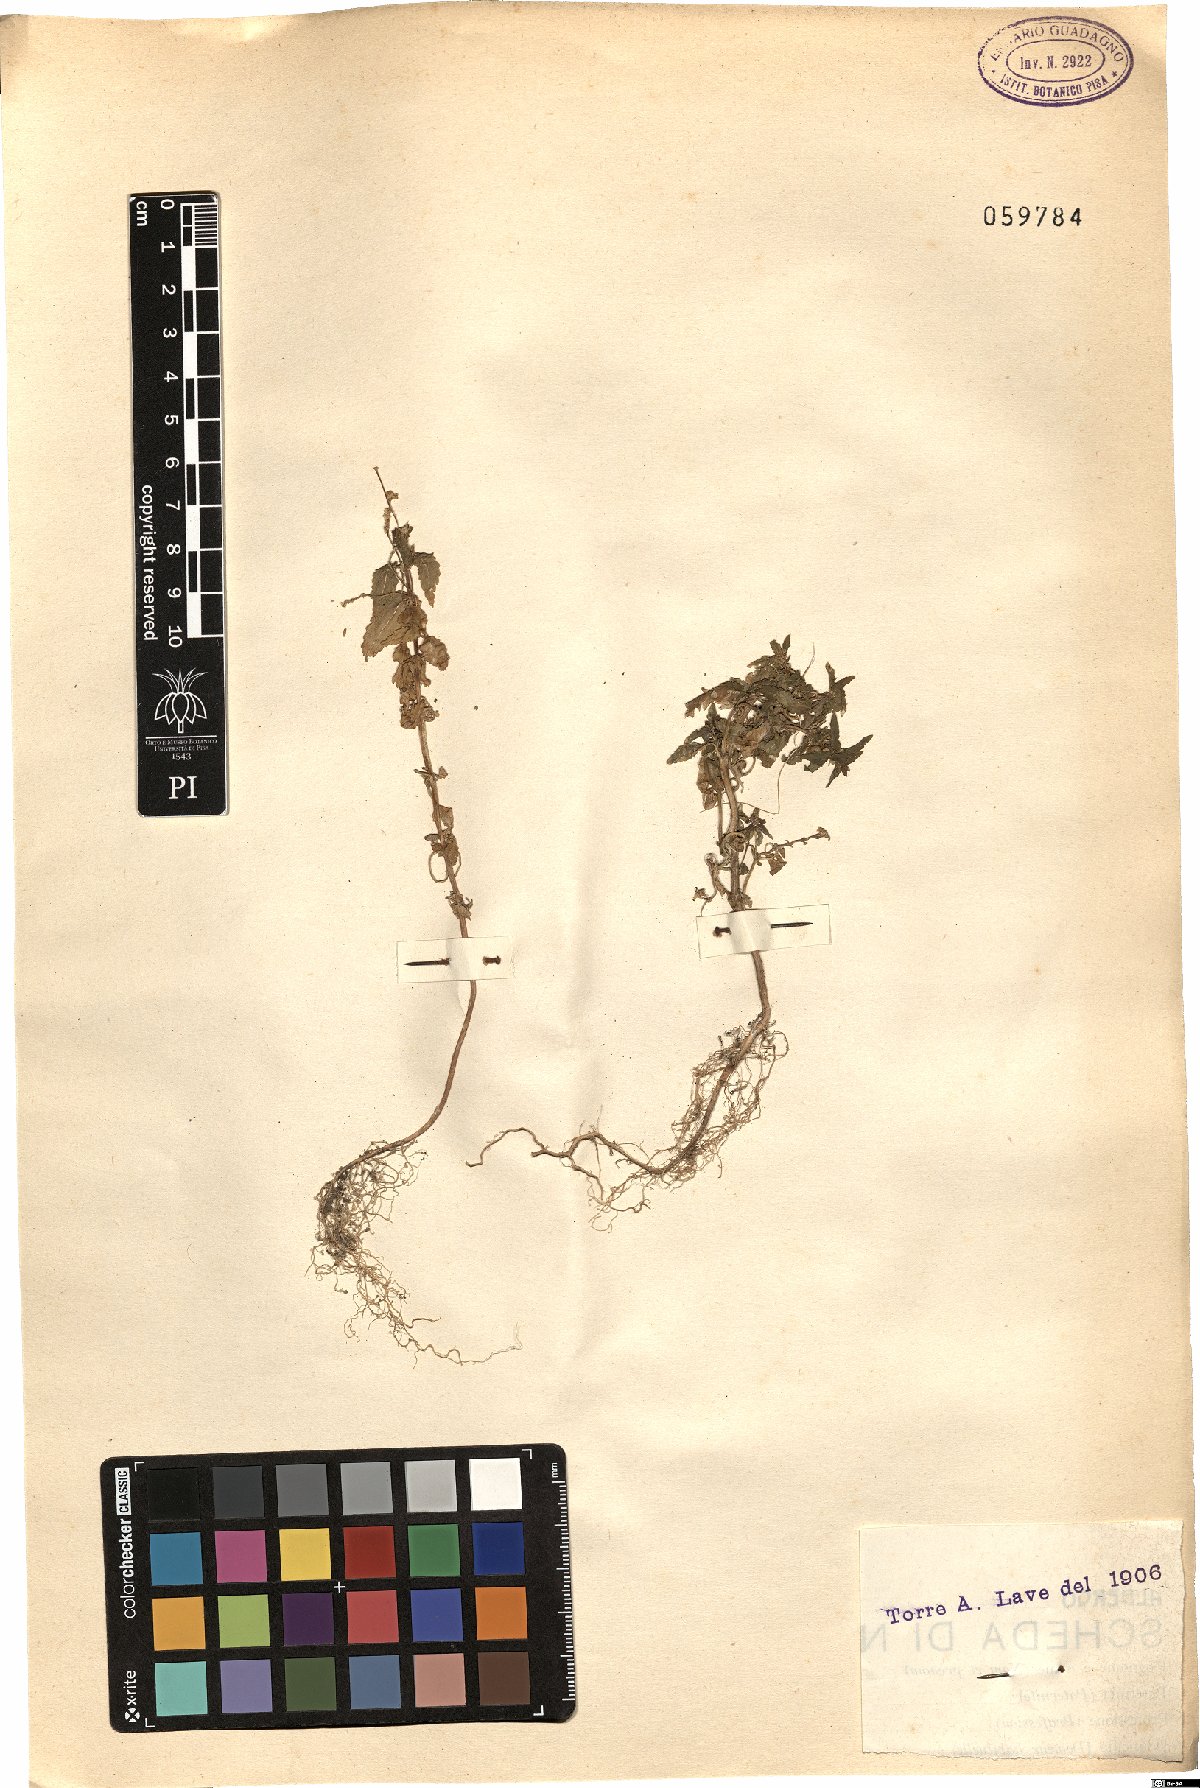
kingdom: Plantae
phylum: Tracheophyta
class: Magnoliopsida
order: Malpighiales
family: Euphorbiaceae
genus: Mercurialis
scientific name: Mercurialis annua
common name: Annual mercury
